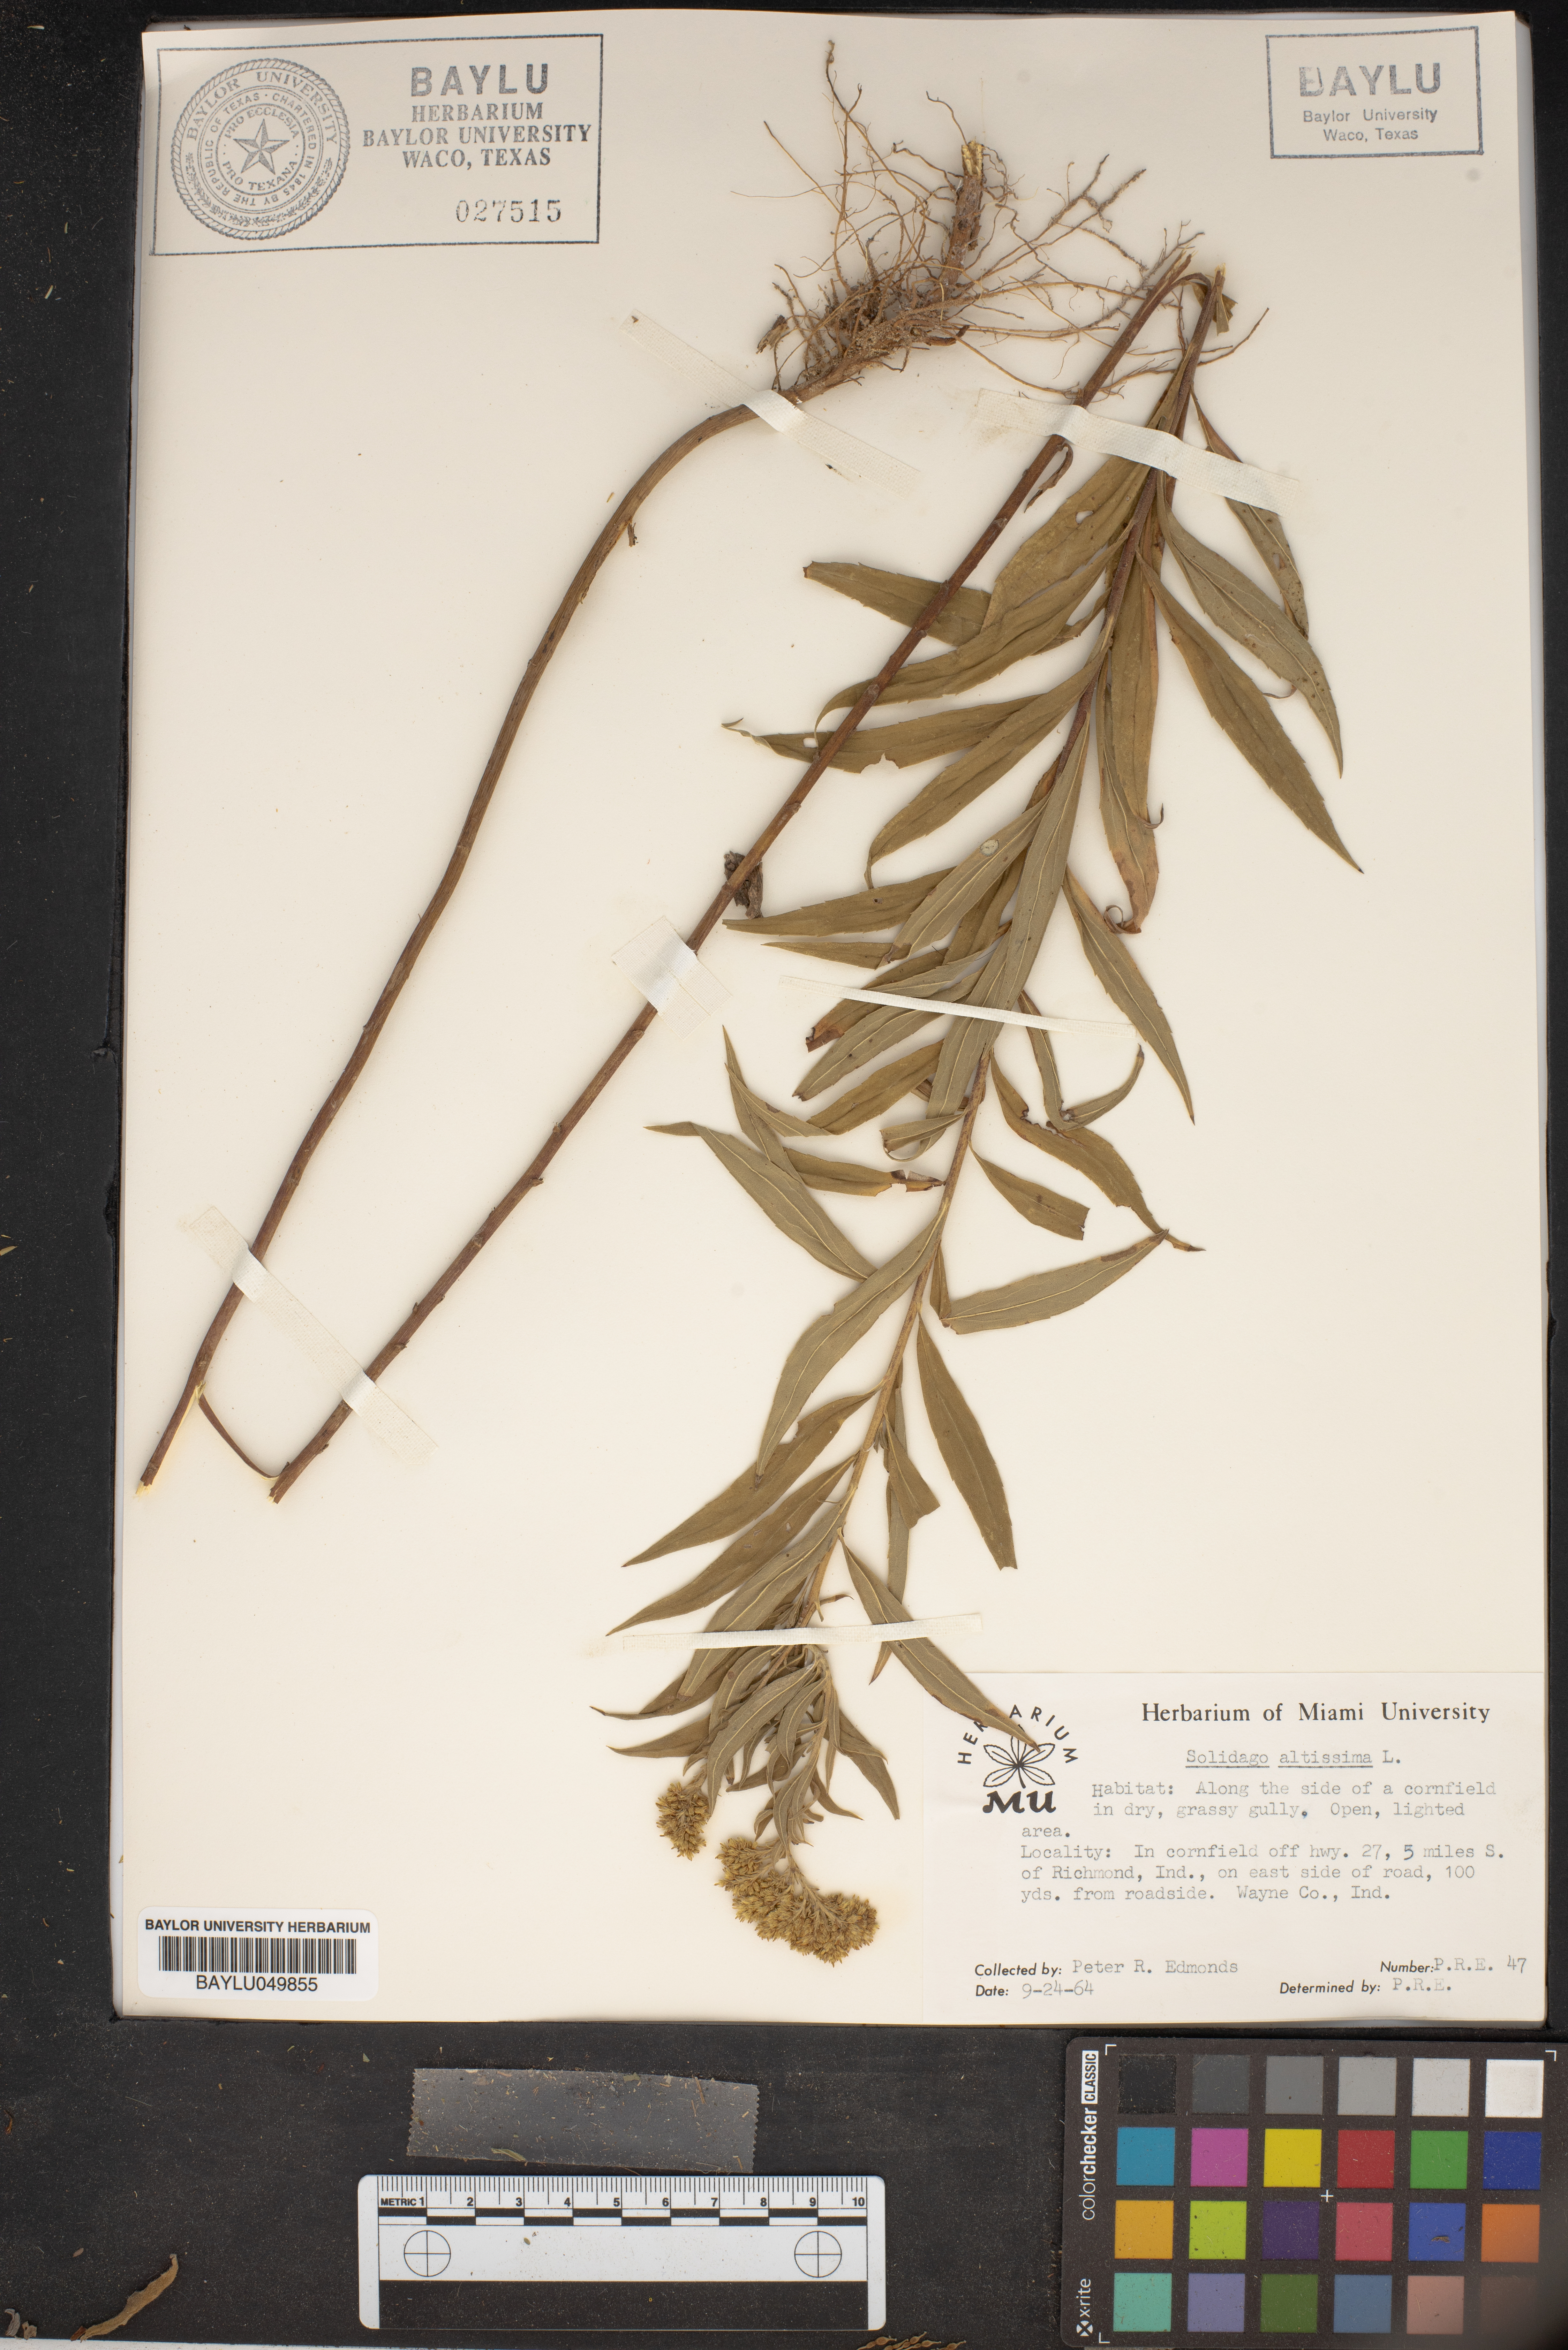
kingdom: Plantae
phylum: Tracheophyta
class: Magnoliopsida
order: Asterales
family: Asteraceae
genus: Solidago
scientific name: Solidago altissima
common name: Late goldenrod
